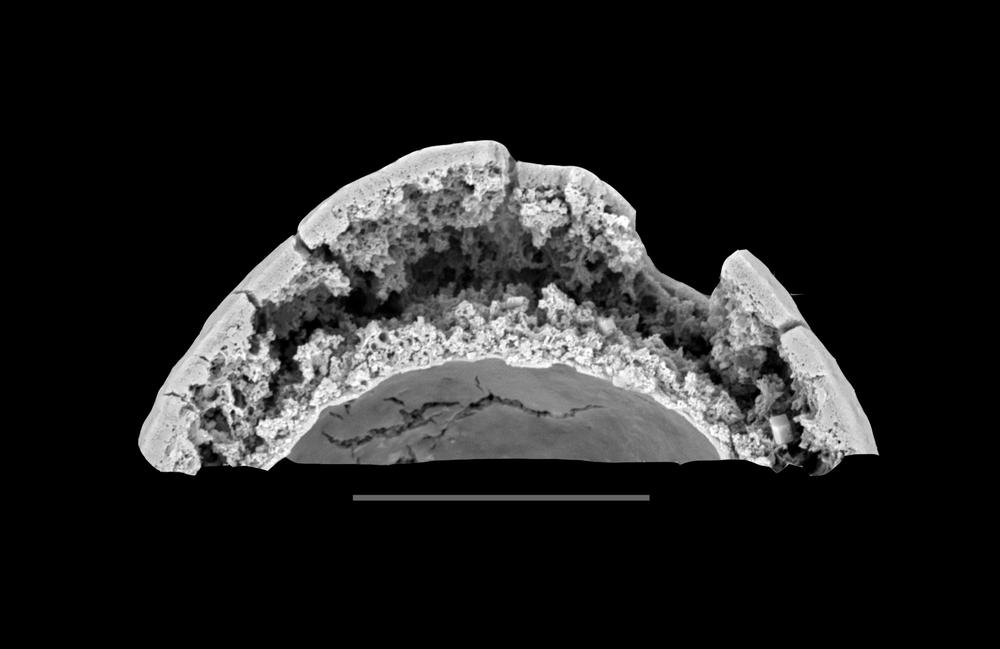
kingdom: Animalia
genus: Vikisphaera
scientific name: Vikisphaera
